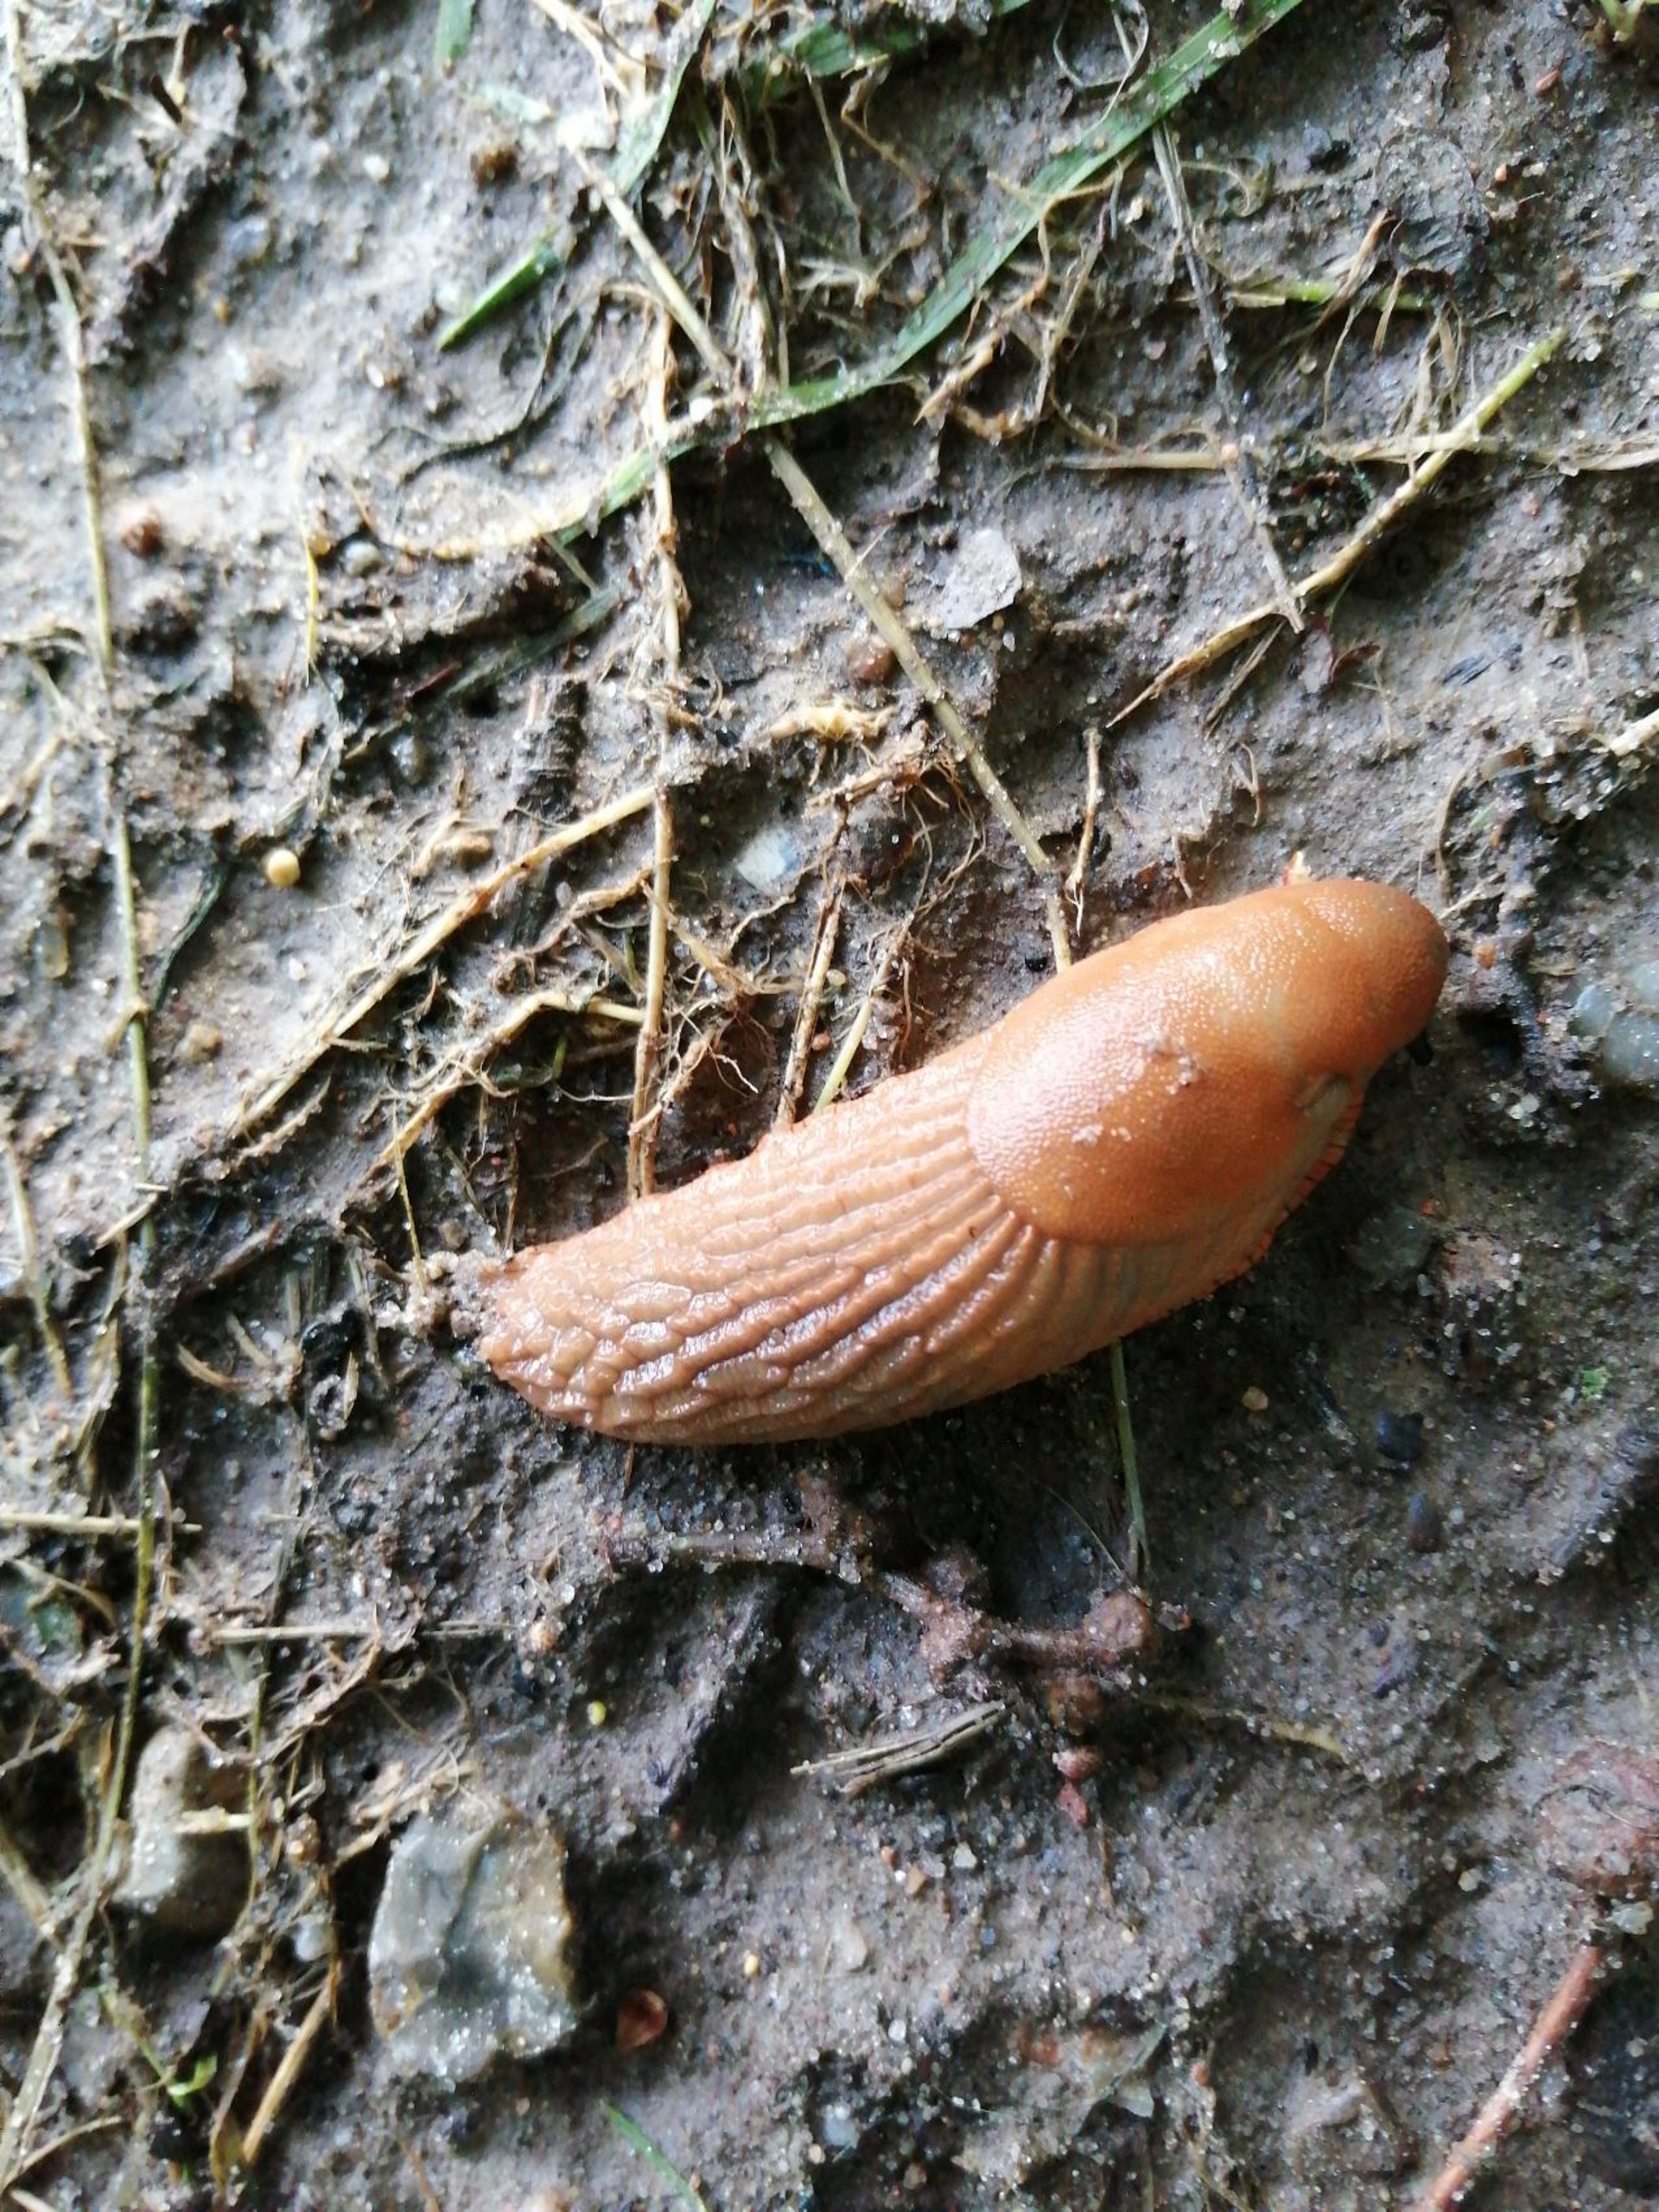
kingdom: Animalia
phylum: Mollusca
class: Gastropoda
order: Stylommatophora
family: Arionidae
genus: Arion
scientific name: Arion vulgaris
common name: Iberisk skovsnegl
